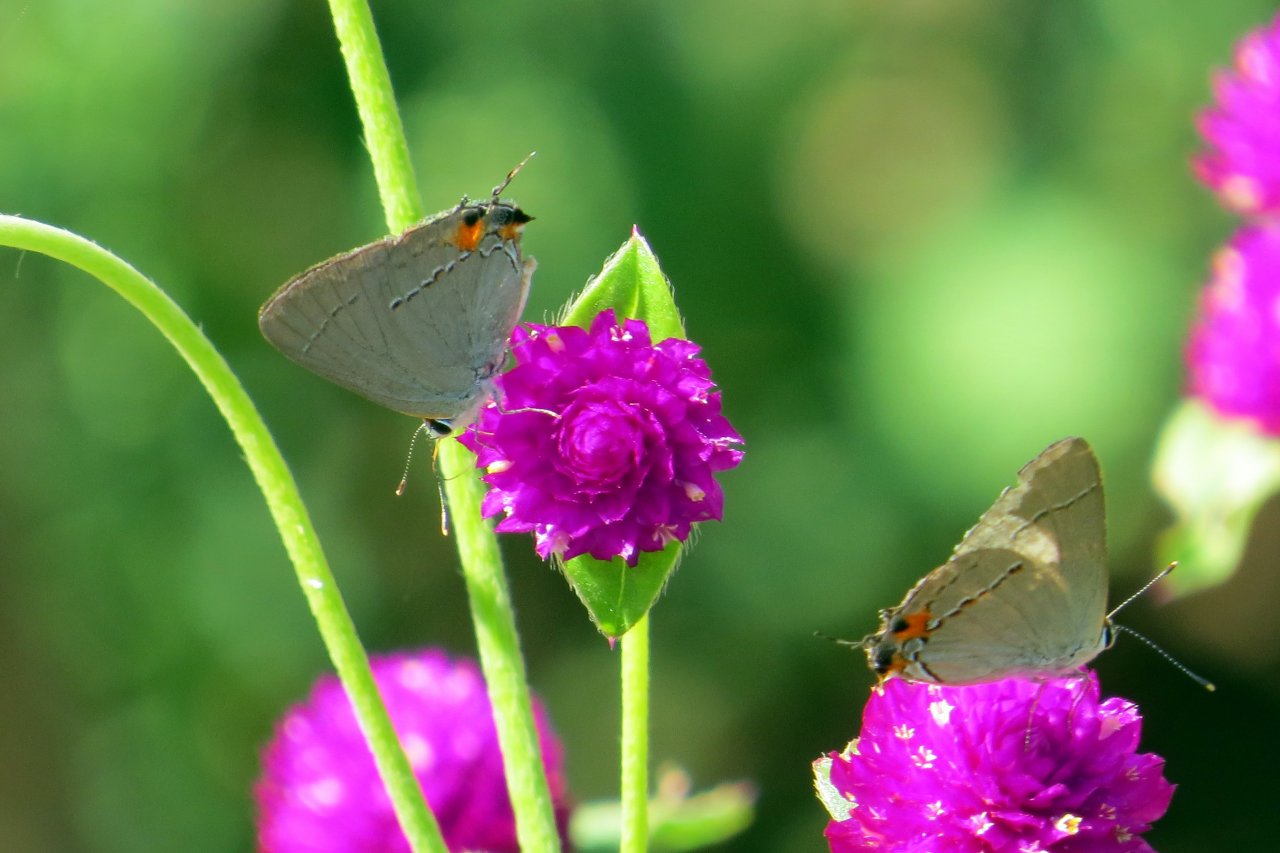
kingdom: Animalia
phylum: Arthropoda
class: Insecta
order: Lepidoptera
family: Lycaenidae
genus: Strymon
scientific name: Strymon melinus
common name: Gray Hairstreak
